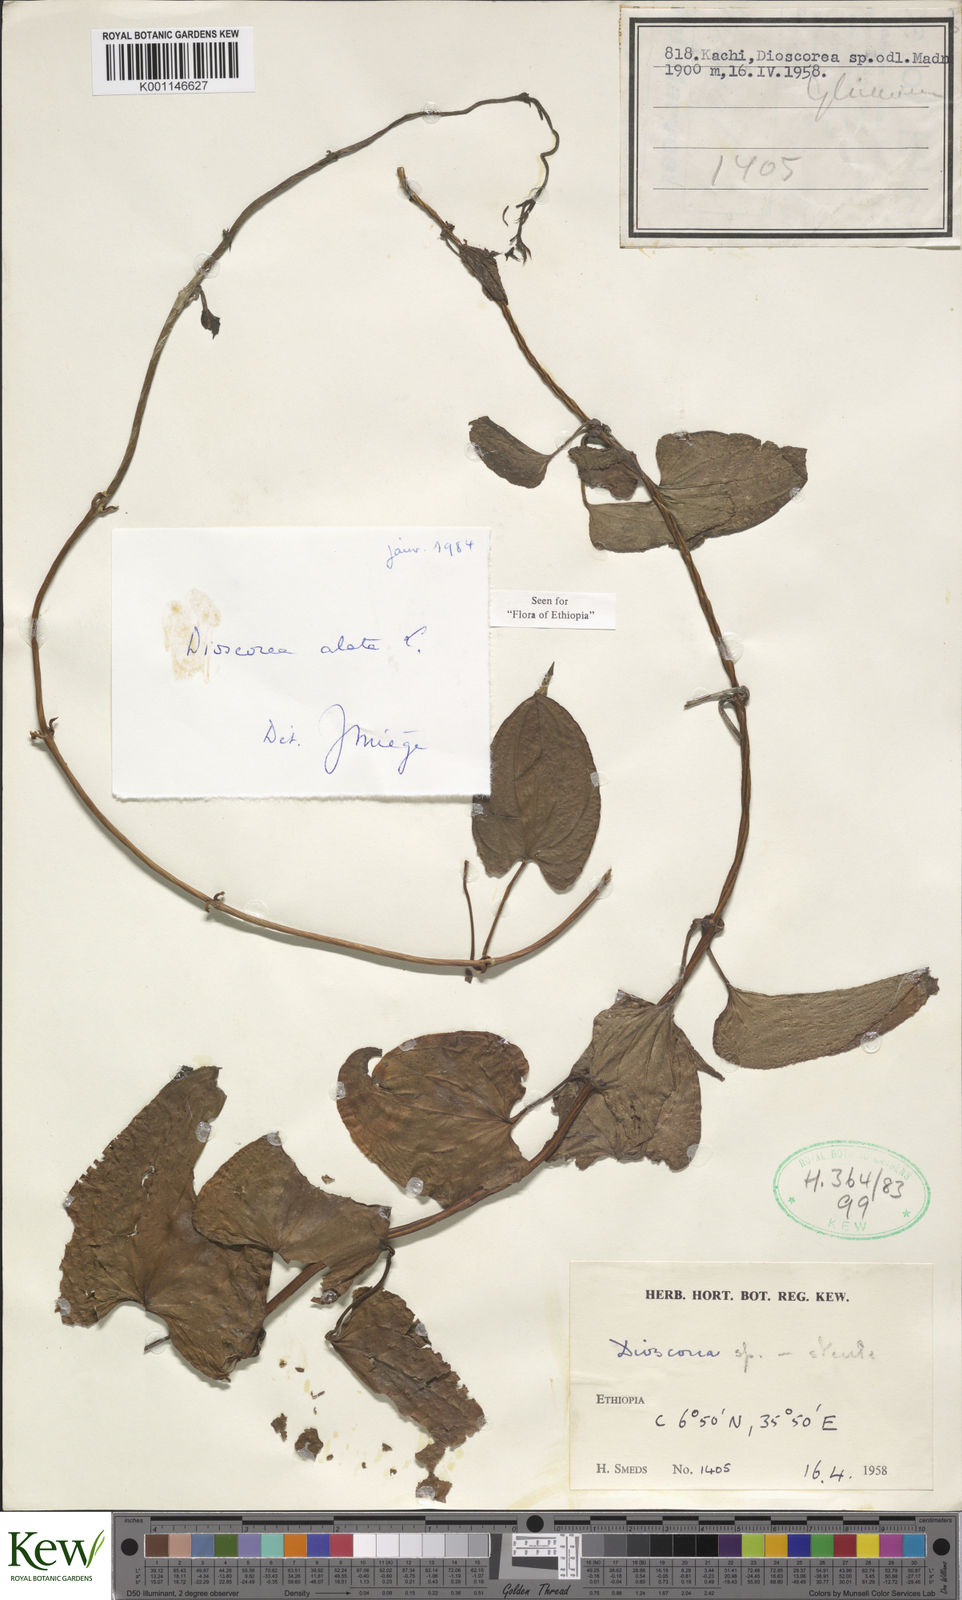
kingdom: Plantae
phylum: Tracheophyta
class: Liliopsida
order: Dioscoreales
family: Dioscoreaceae
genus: Dioscorea
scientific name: Dioscorea alata
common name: Water yam
